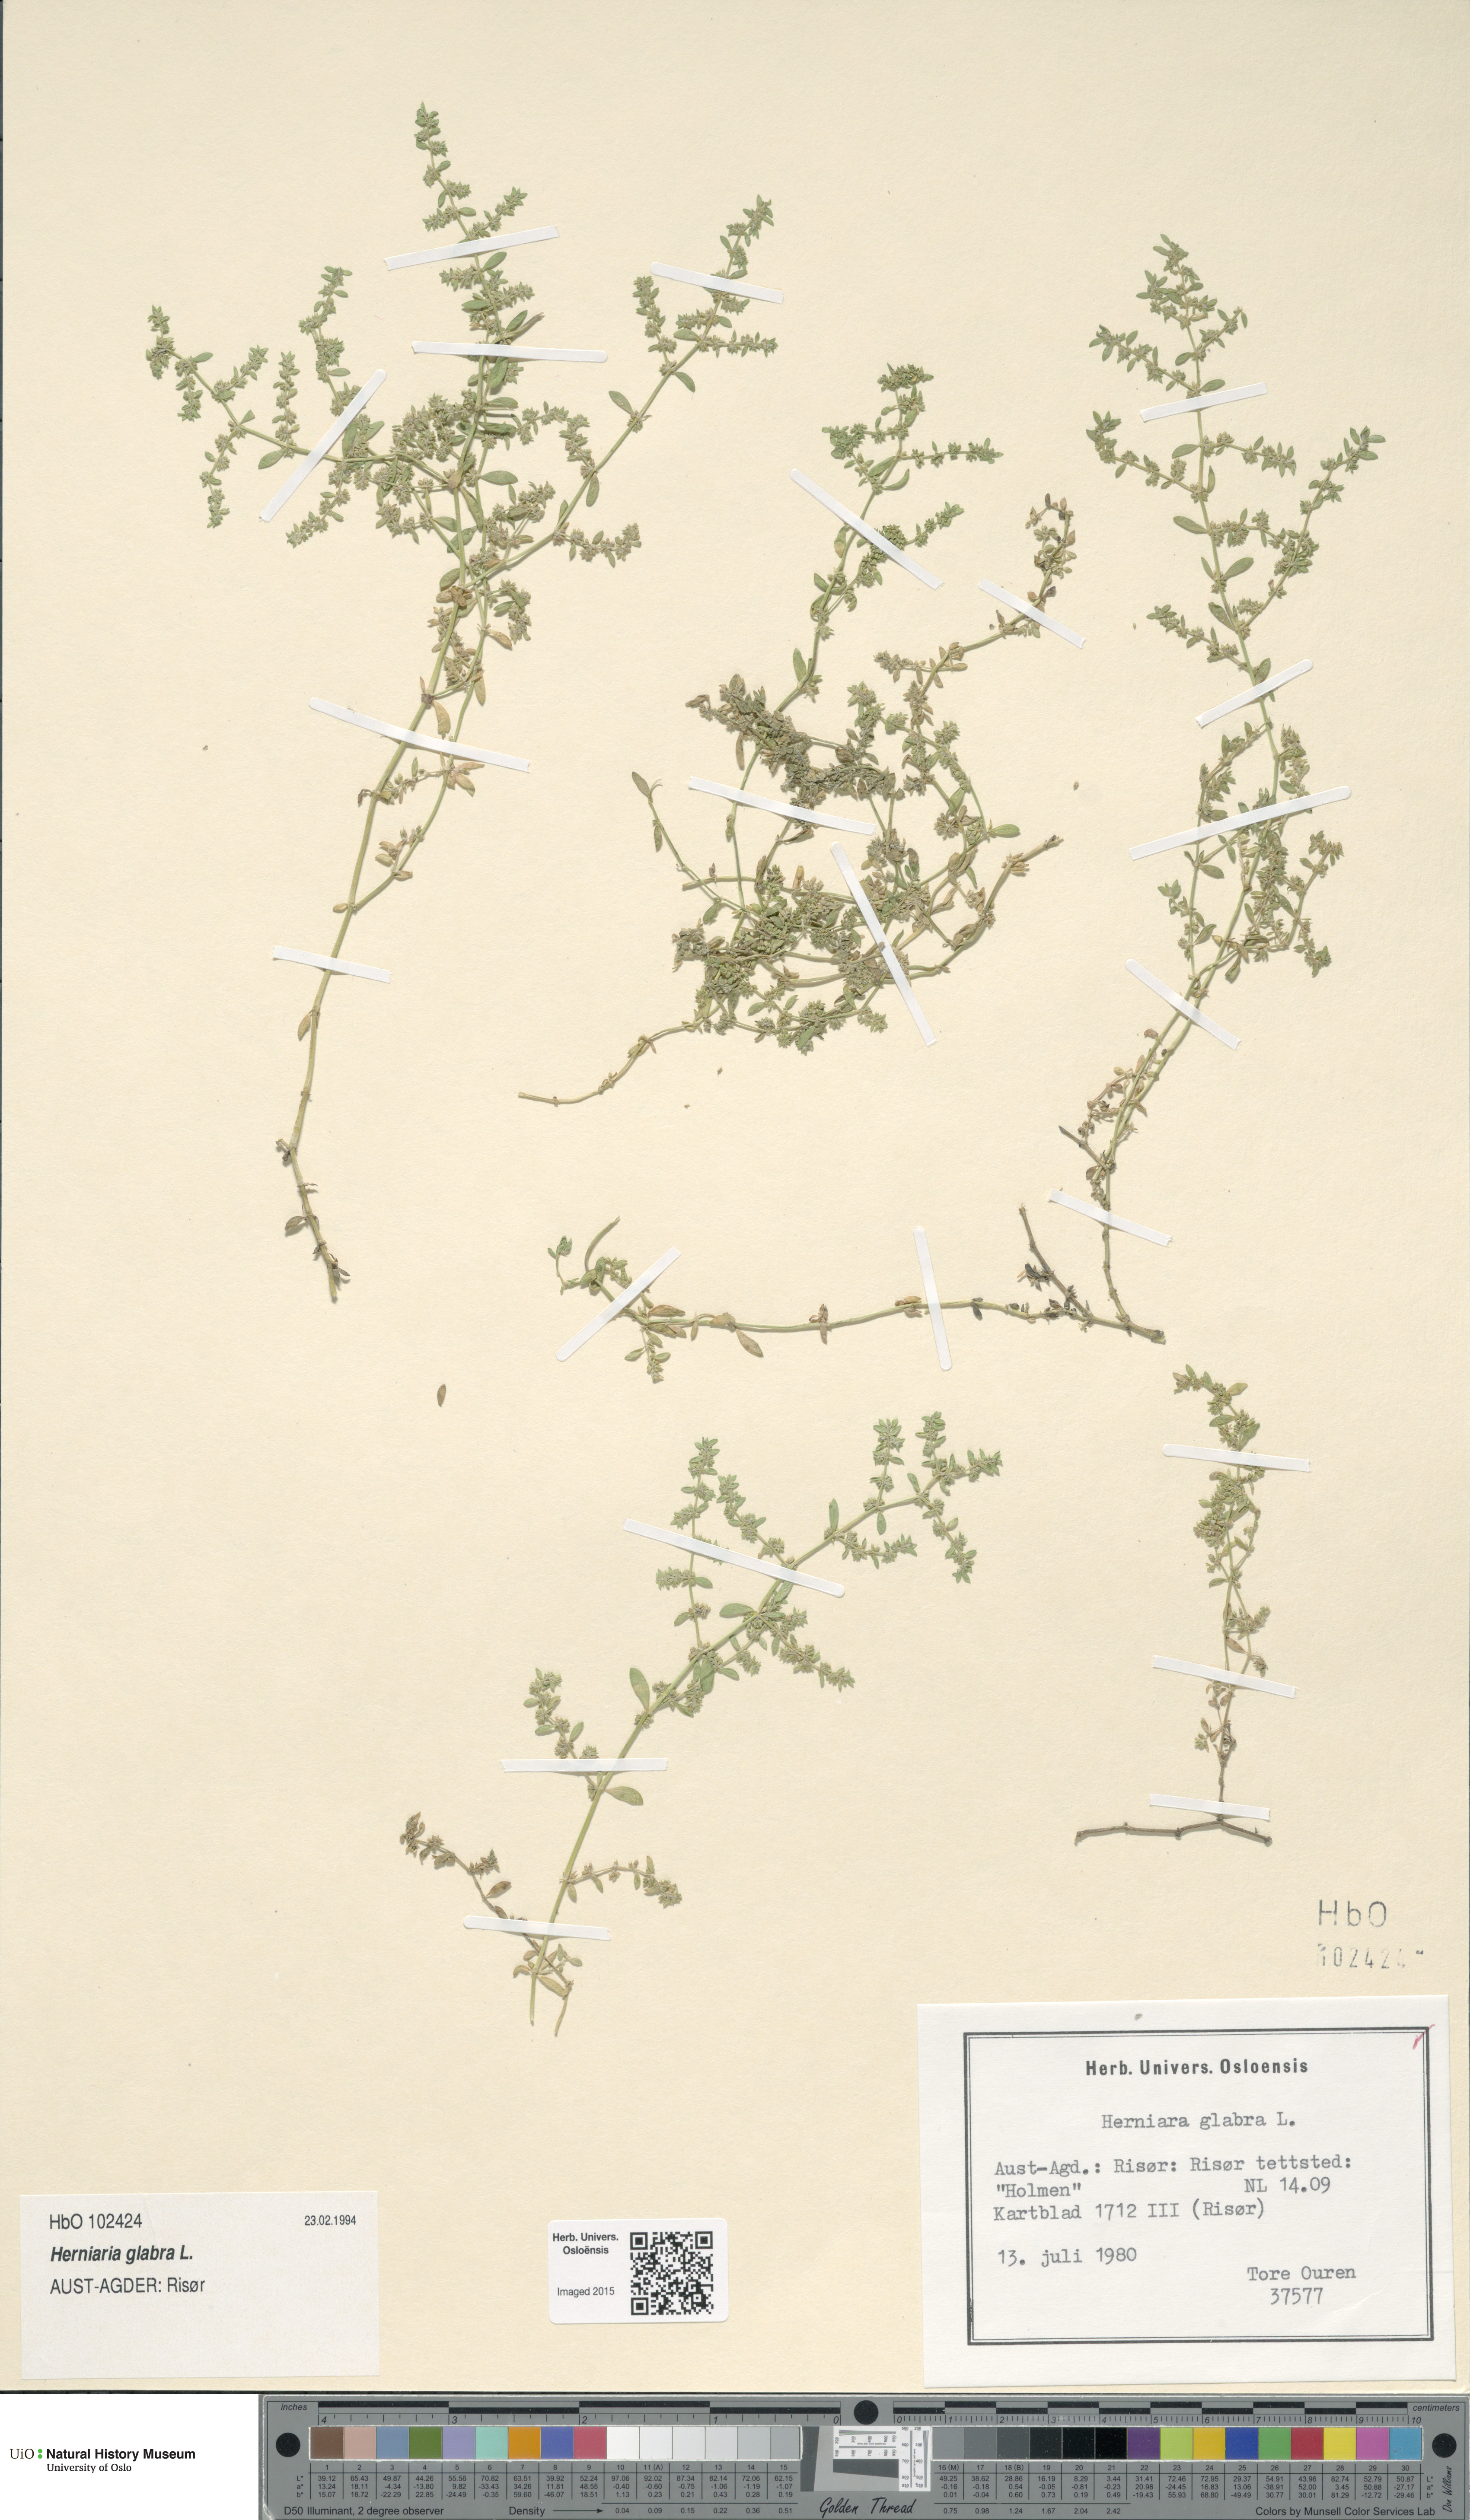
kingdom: Plantae
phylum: Tracheophyta
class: Magnoliopsida
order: Caryophyllales
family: Caryophyllaceae
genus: Herniaria
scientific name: Herniaria glabra
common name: Smooth rupturewort
